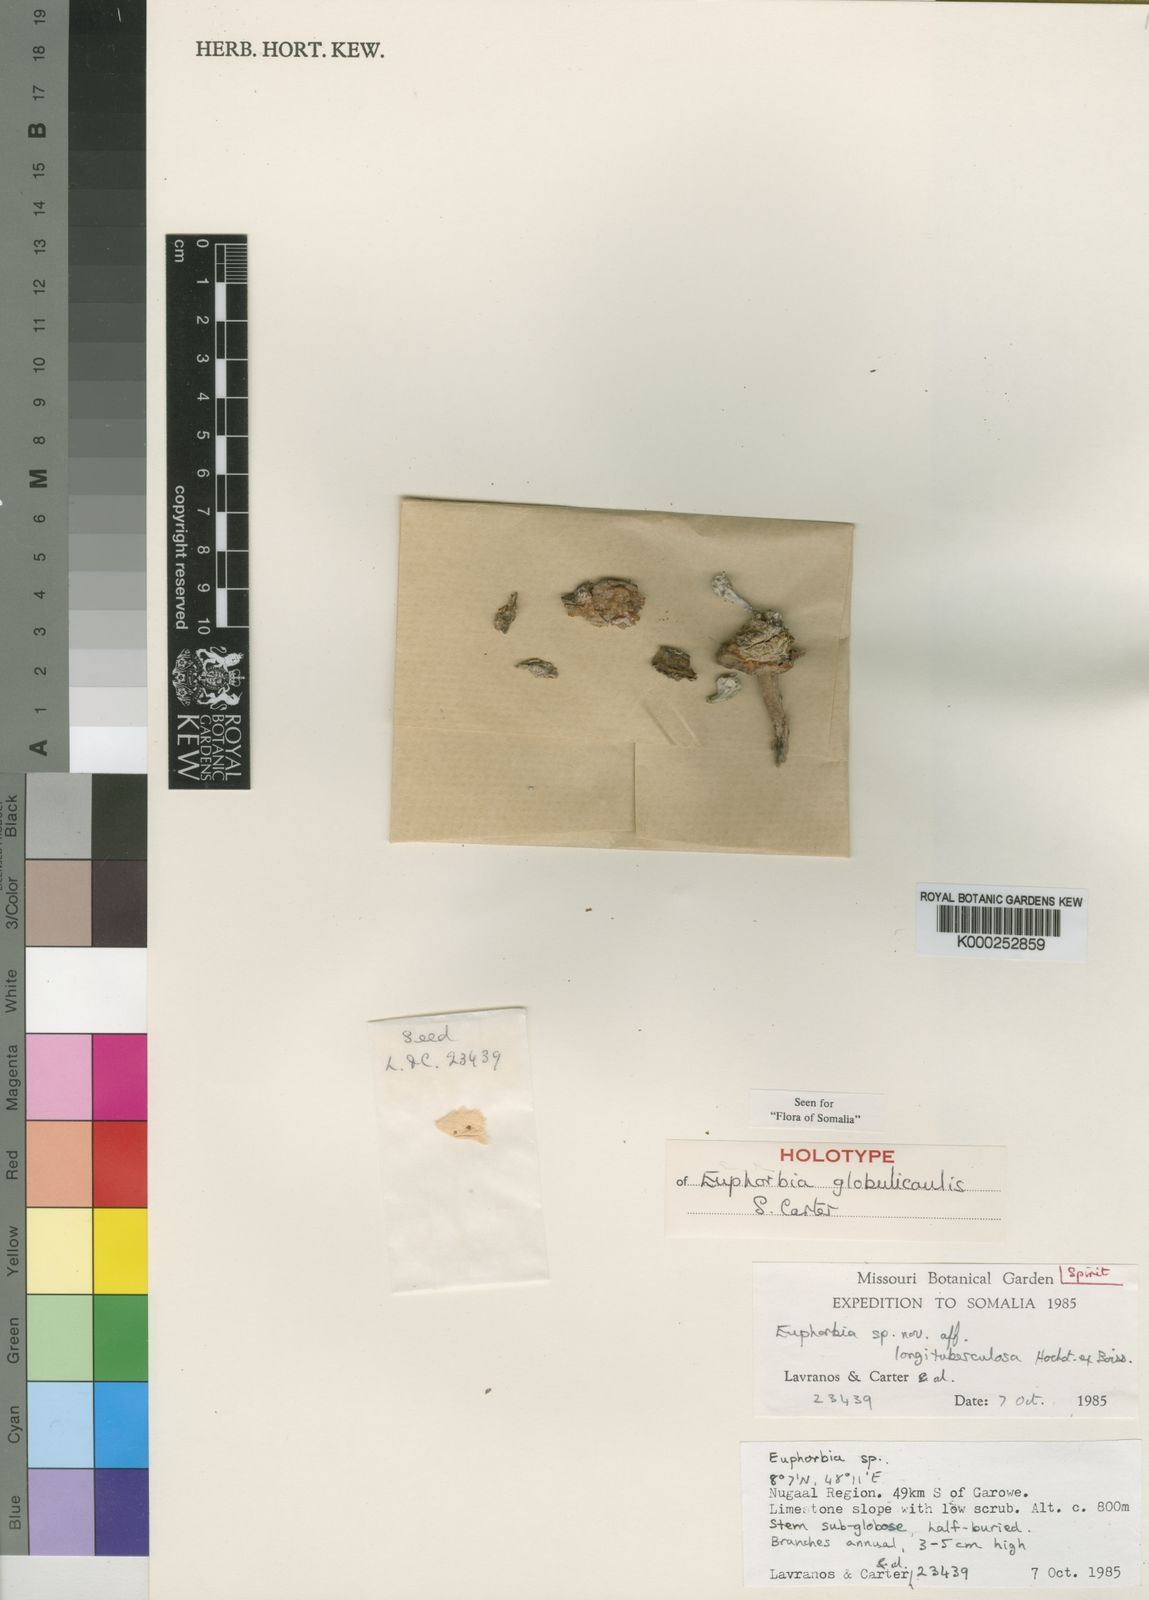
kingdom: Plantae
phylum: Tracheophyta
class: Magnoliopsida
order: Malpighiales
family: Euphorbiaceae
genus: Euphorbia
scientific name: Euphorbia globulicaulis
